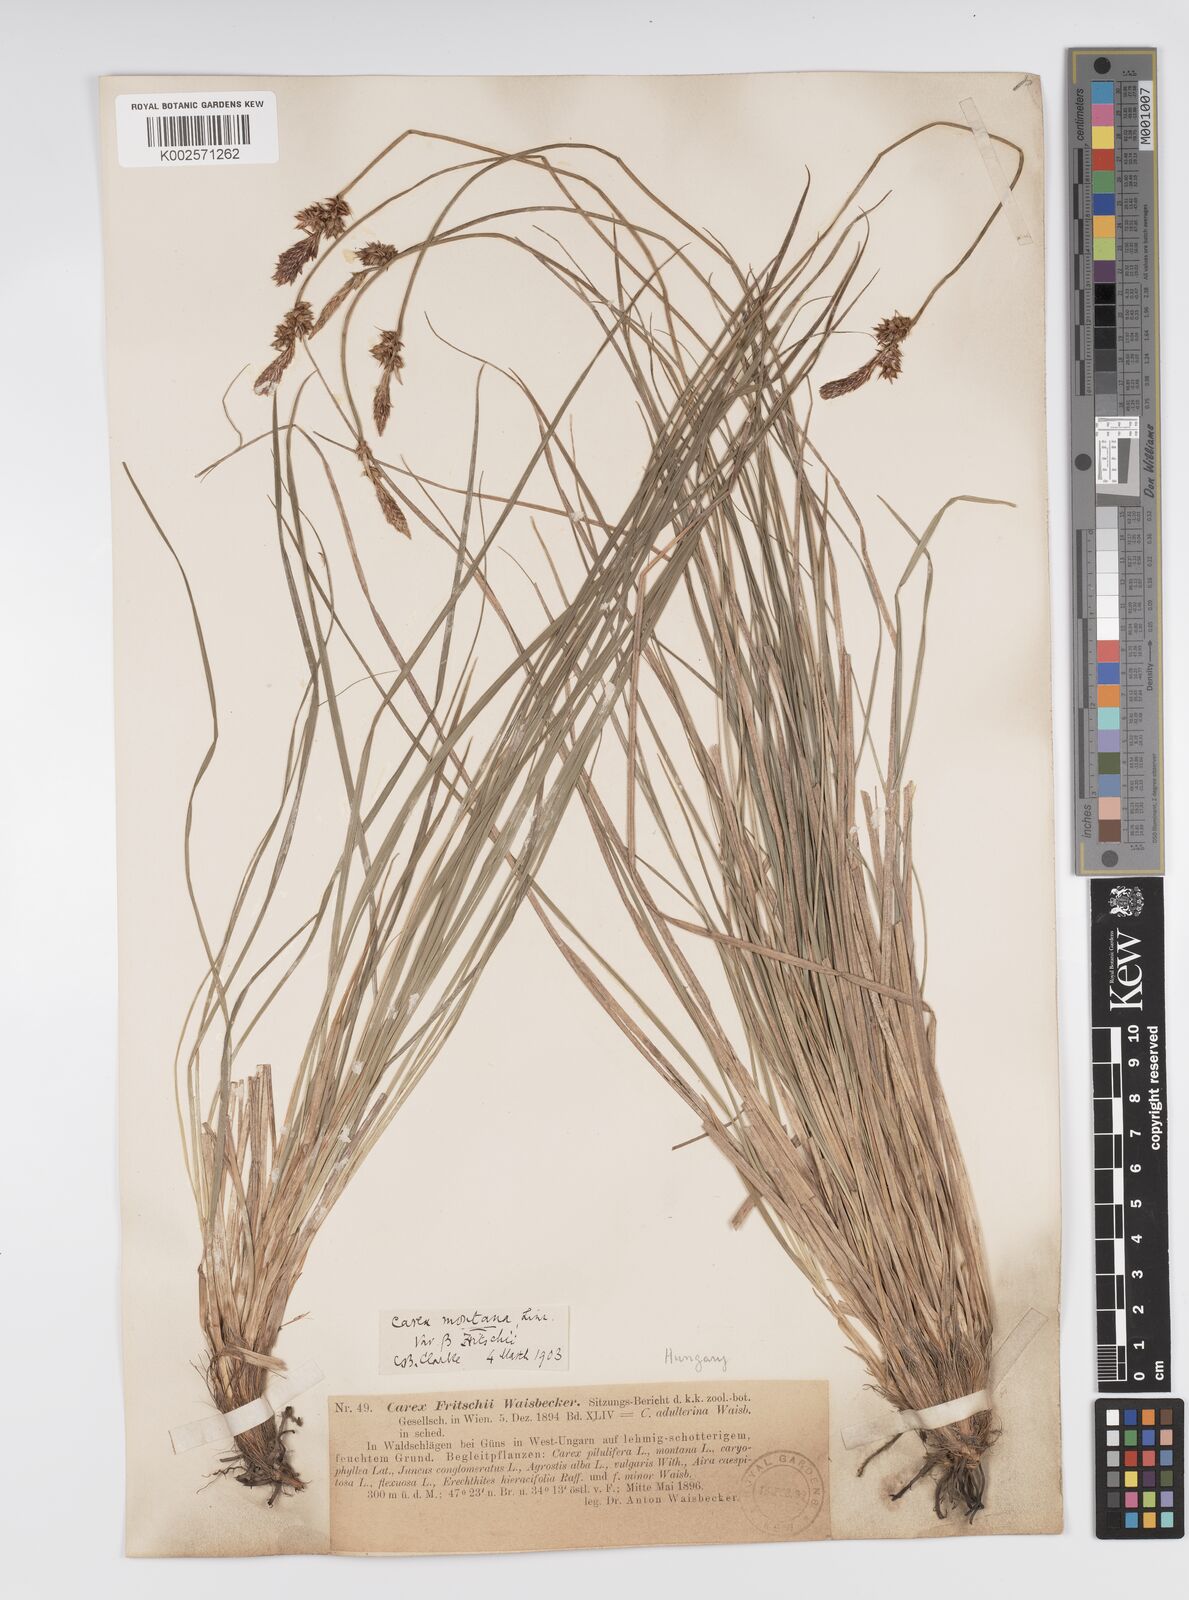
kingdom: Plantae
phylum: Tracheophyta
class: Liliopsida
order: Poales
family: Cyperaceae
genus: Carex
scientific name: Carex fritschii
